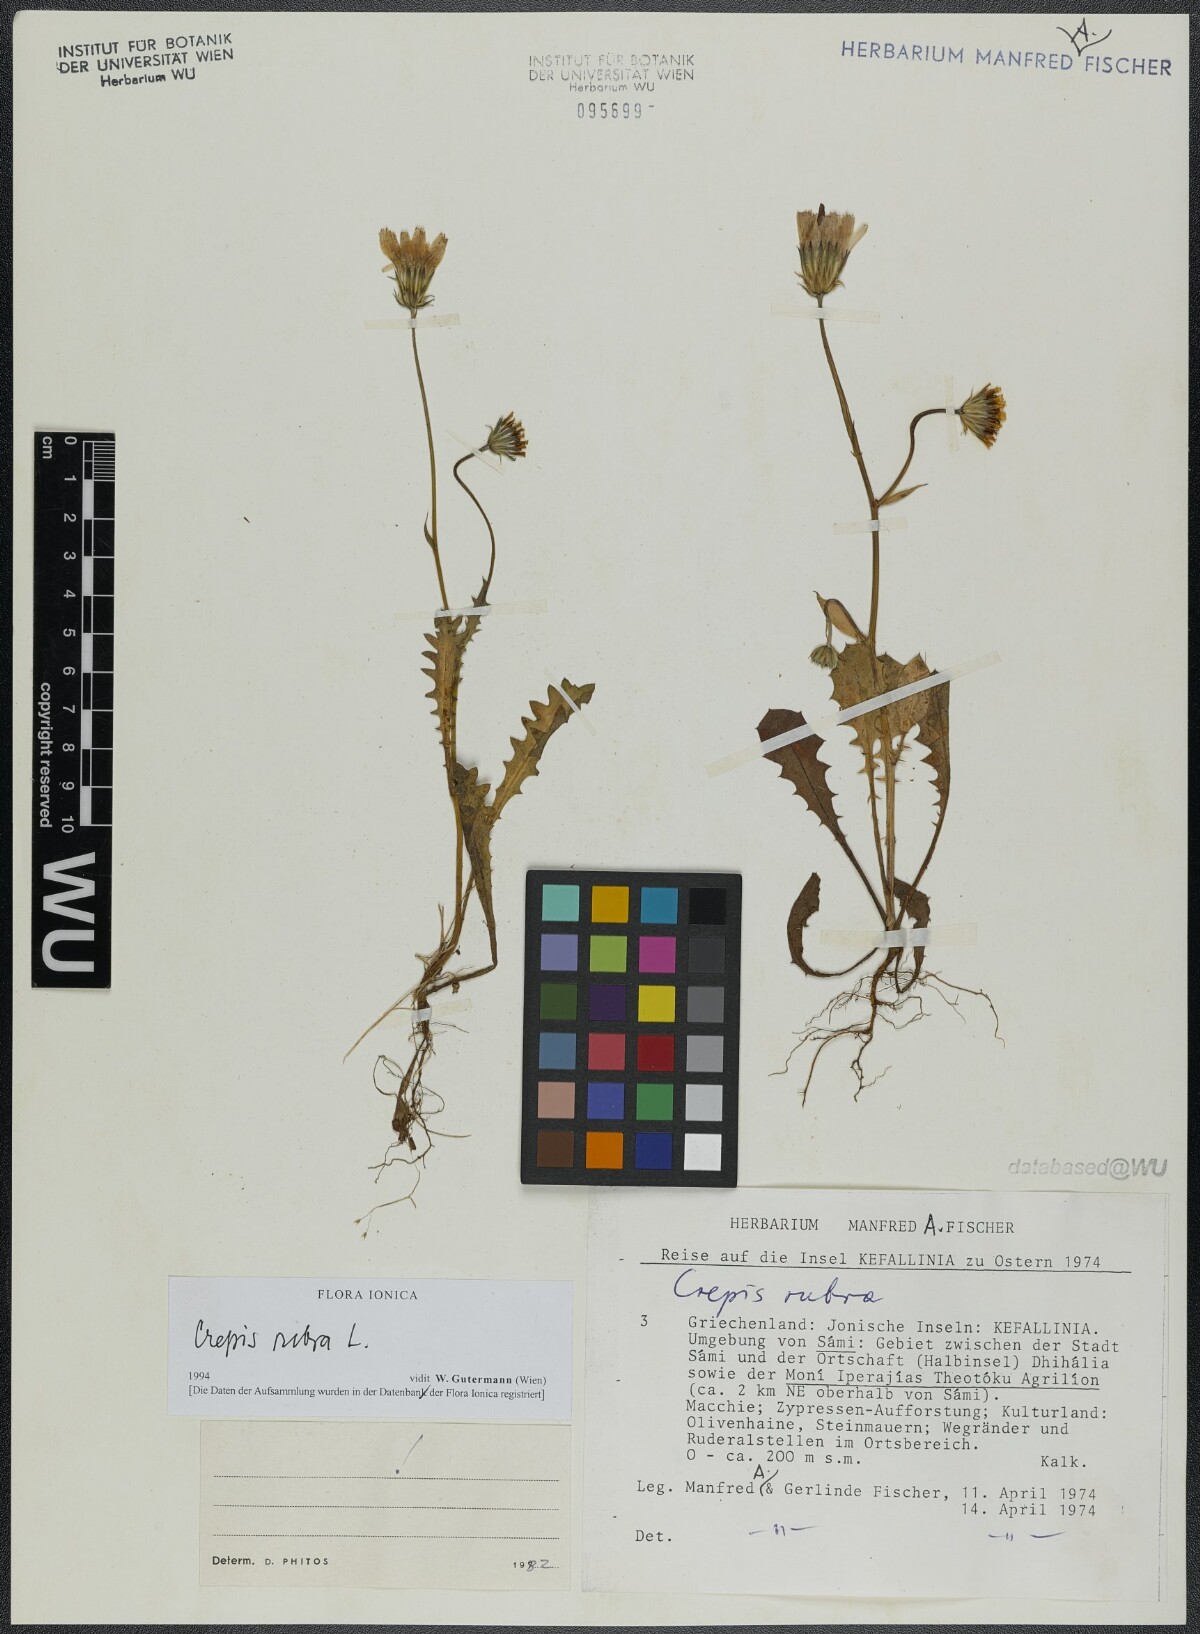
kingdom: Plantae
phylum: Tracheophyta
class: Magnoliopsida
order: Asterales
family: Asteraceae
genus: Crepis
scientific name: Crepis rubra
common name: Pink hawk's-beard
